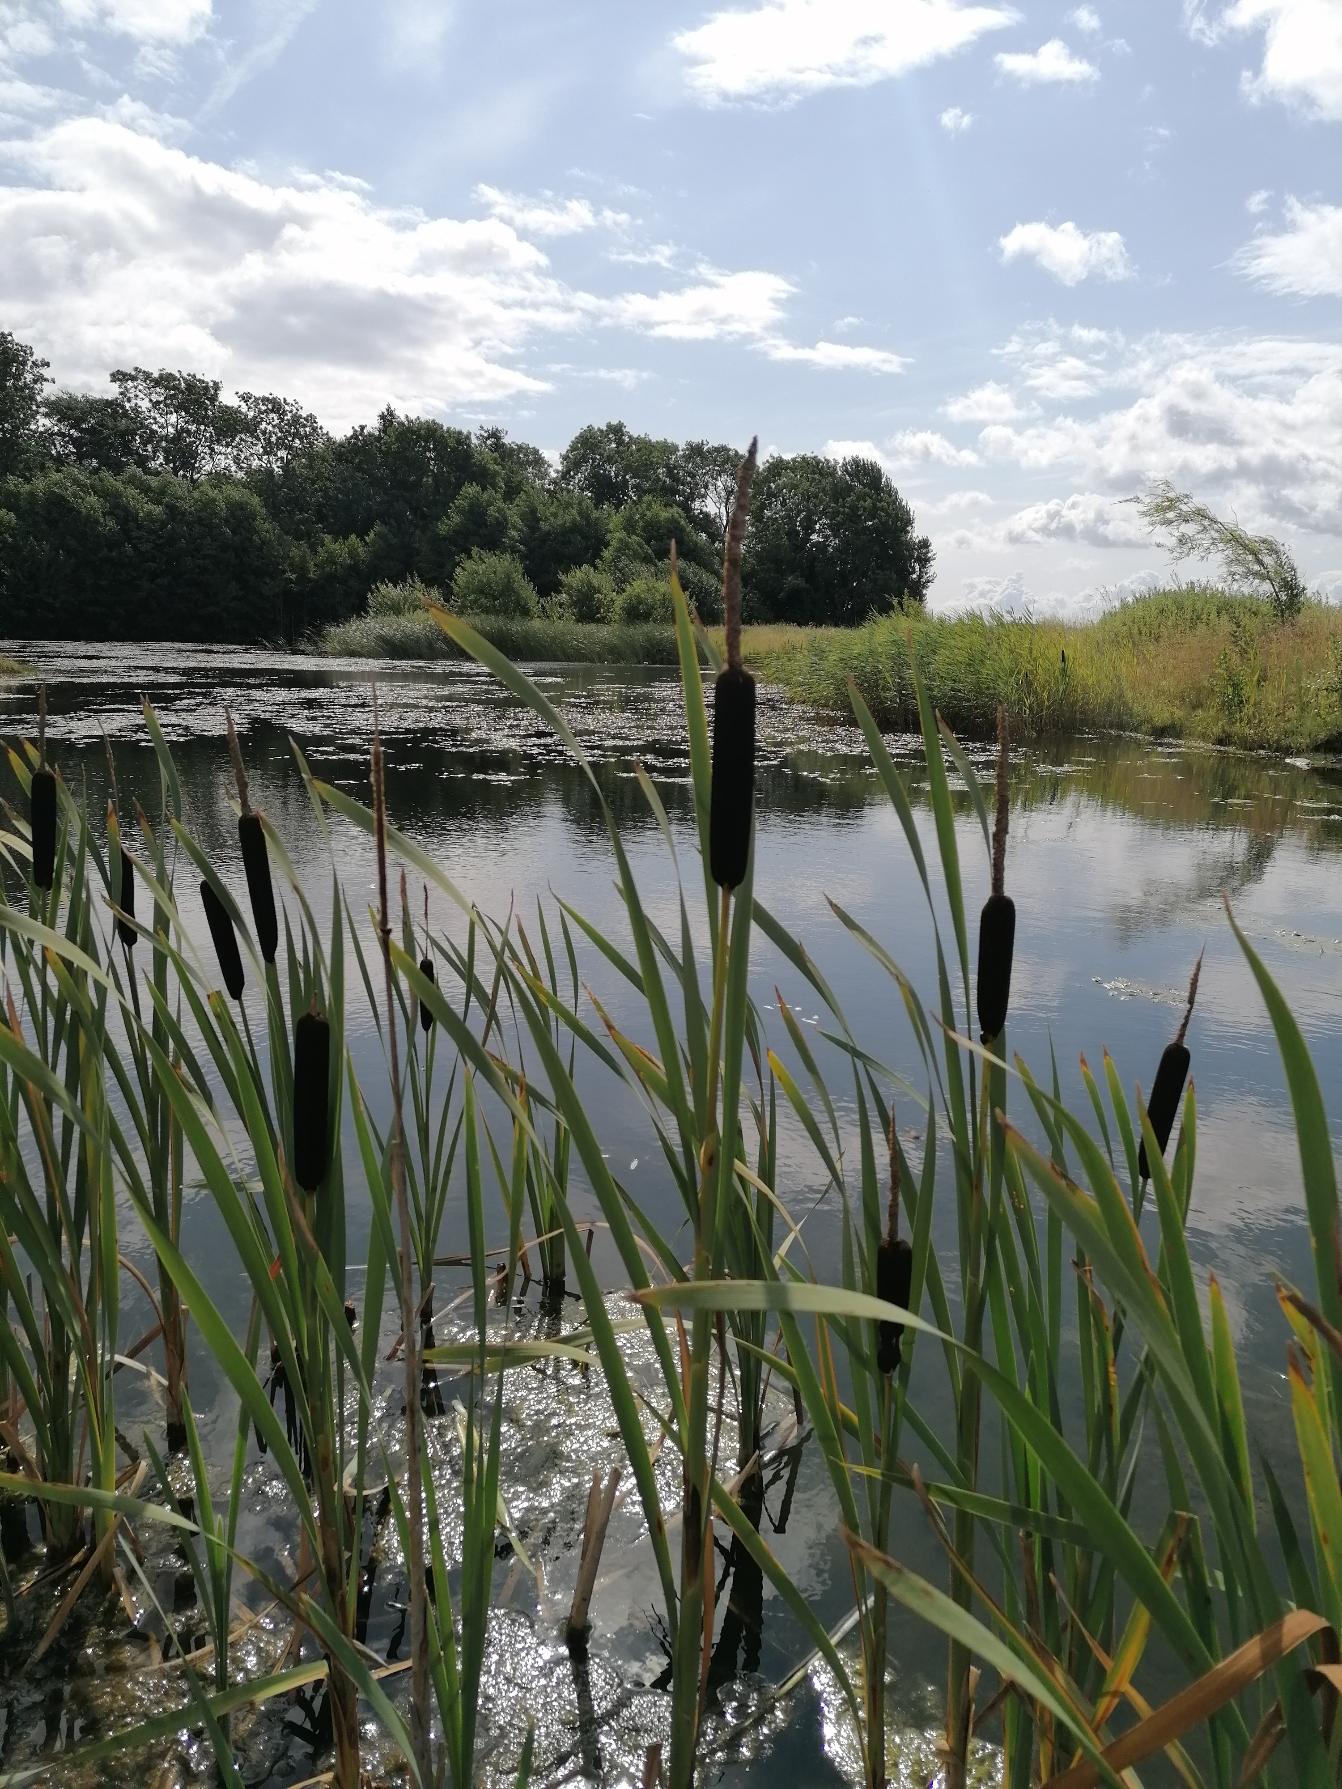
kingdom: Plantae
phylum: Tracheophyta
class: Liliopsida
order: Poales
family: Typhaceae
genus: Typha
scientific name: Typha latifolia
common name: Bredbladet dunhammer
